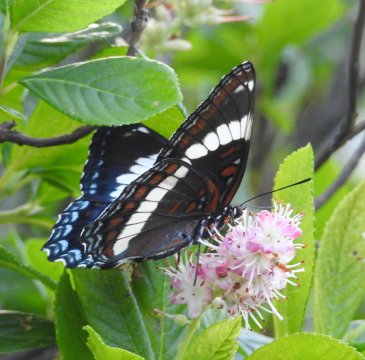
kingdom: Animalia
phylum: Arthropoda
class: Insecta
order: Lepidoptera
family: Nymphalidae
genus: Limenitis
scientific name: Limenitis arthemis
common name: Red-spotted Admiral
